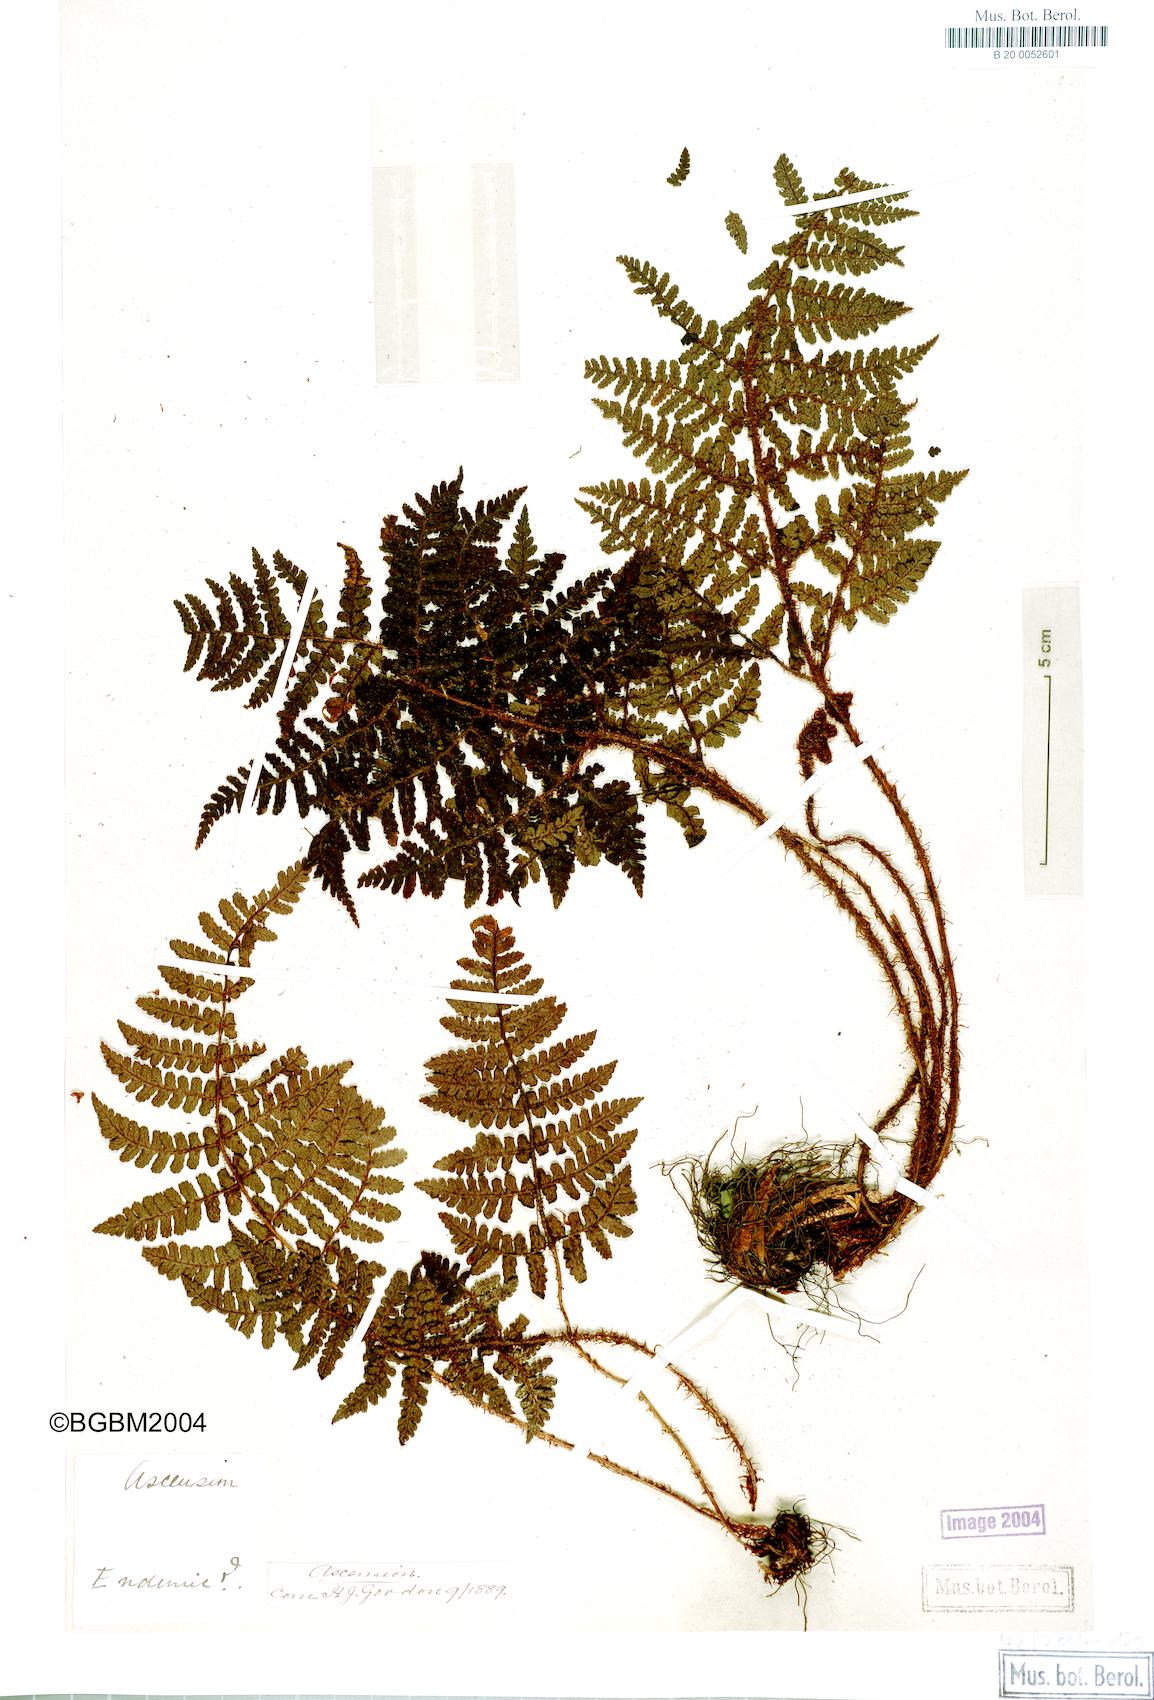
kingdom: Plantae
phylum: Tracheophyta
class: Polypodiopsida
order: Polypodiales
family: Dryopteridaceae
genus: Dryopteris
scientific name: Dryopteris ascensionis
